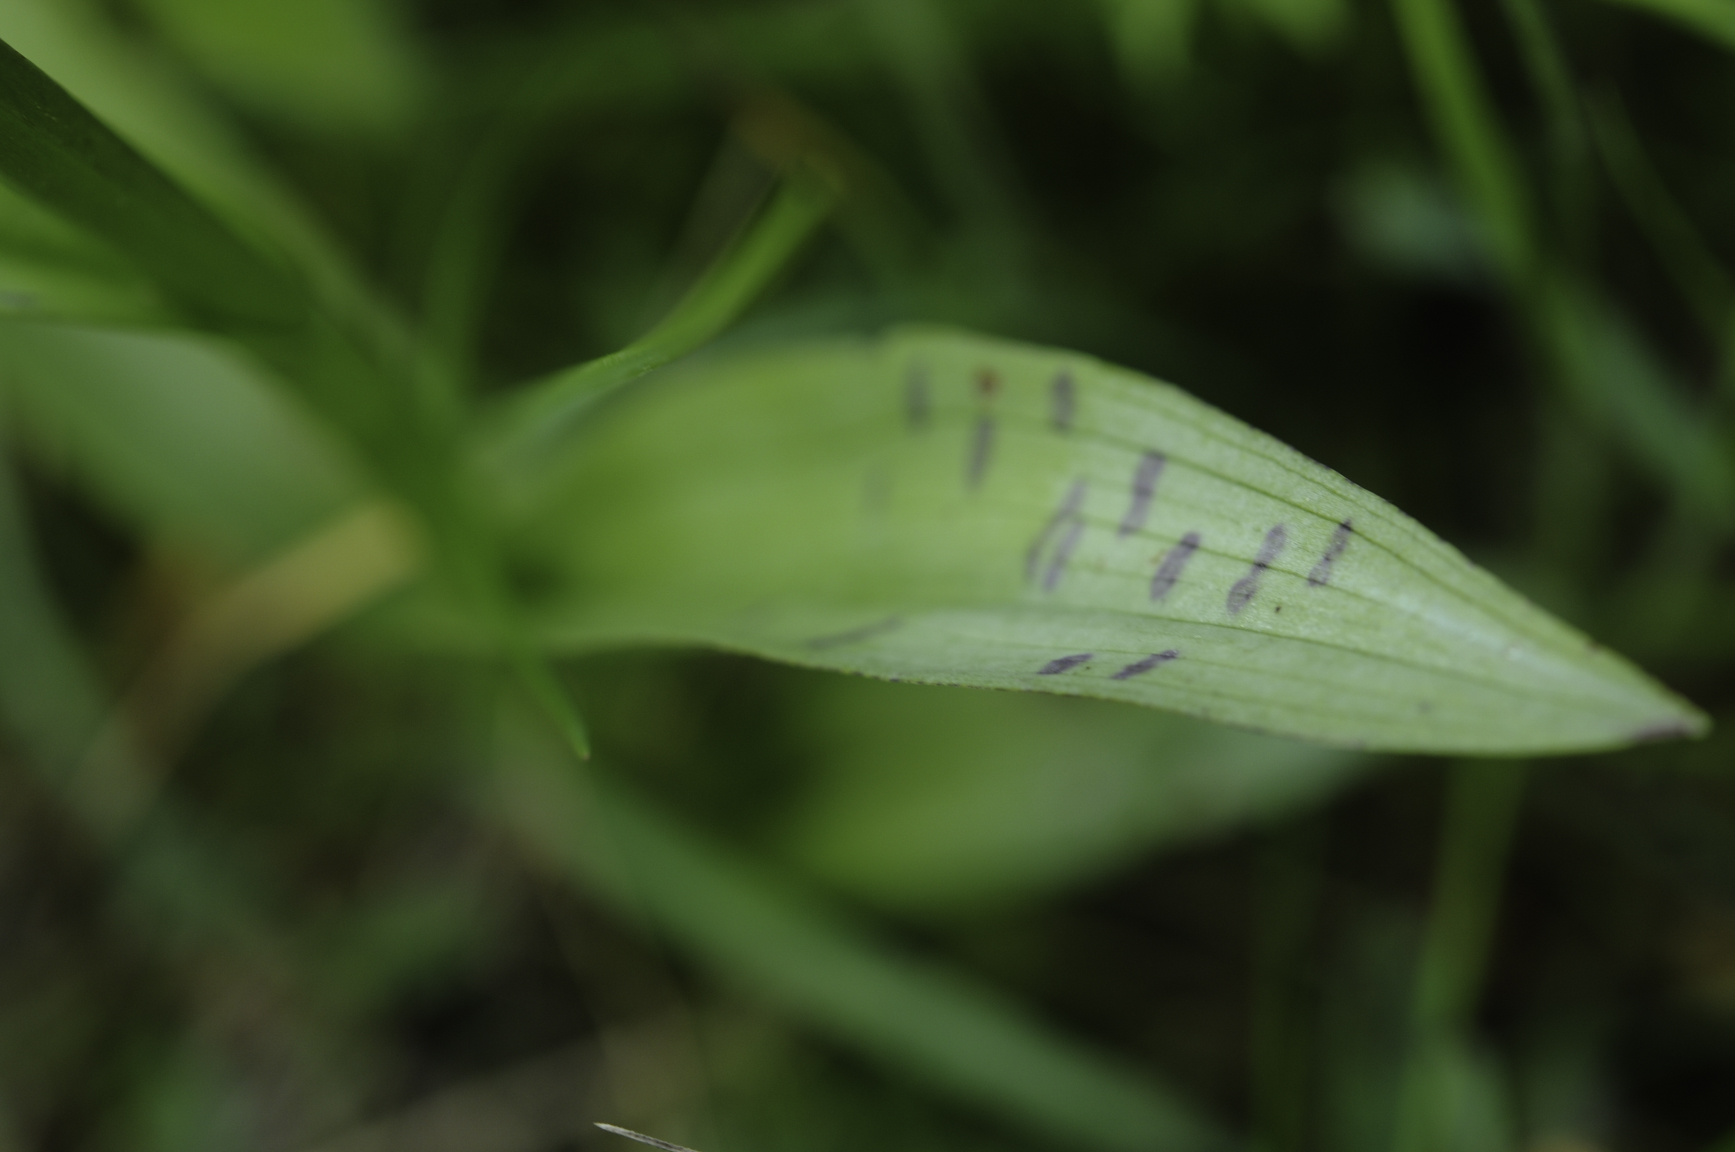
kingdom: Plantae
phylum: Tracheophyta
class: Liliopsida
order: Asparagales
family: Orchidaceae
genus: Dactylorhiza
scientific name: Dactylorhiza majalis
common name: Marsh orchid
